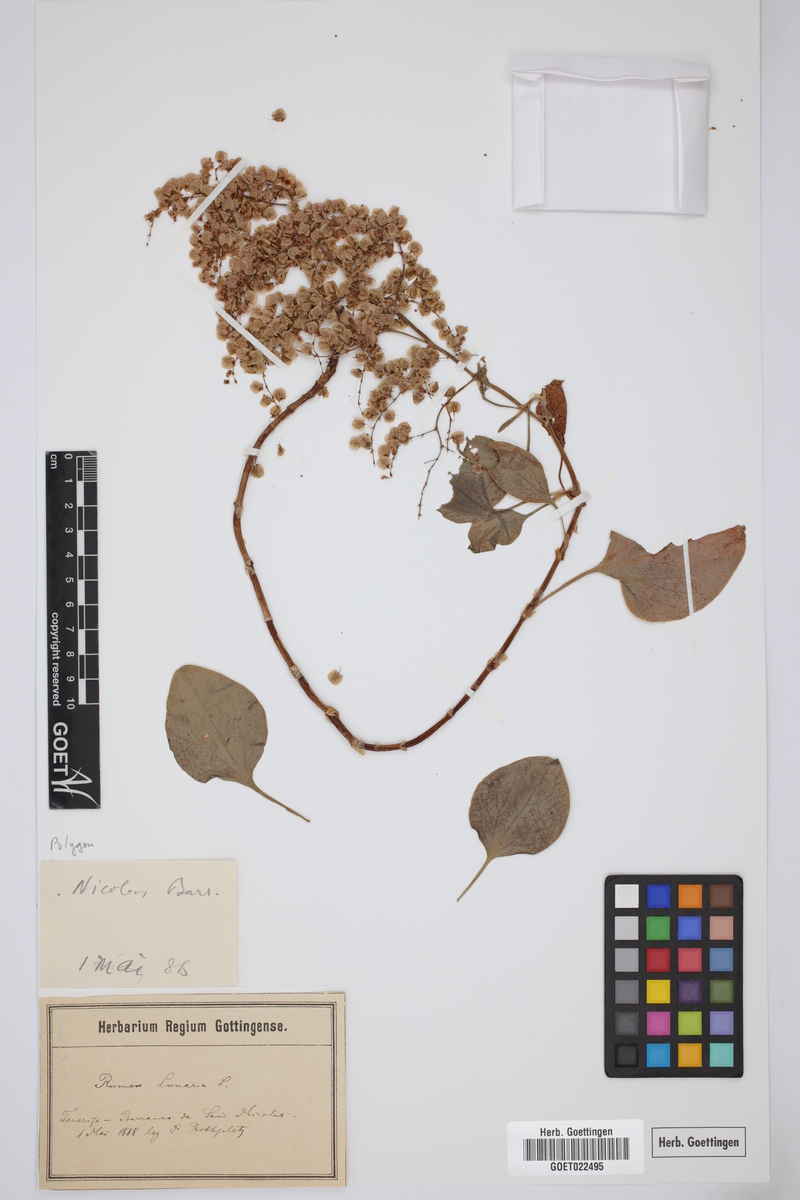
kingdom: Plantae
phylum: Tracheophyta
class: Magnoliopsida
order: Caryophyllales
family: Polygonaceae
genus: Rumex
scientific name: Rumex lunaria
